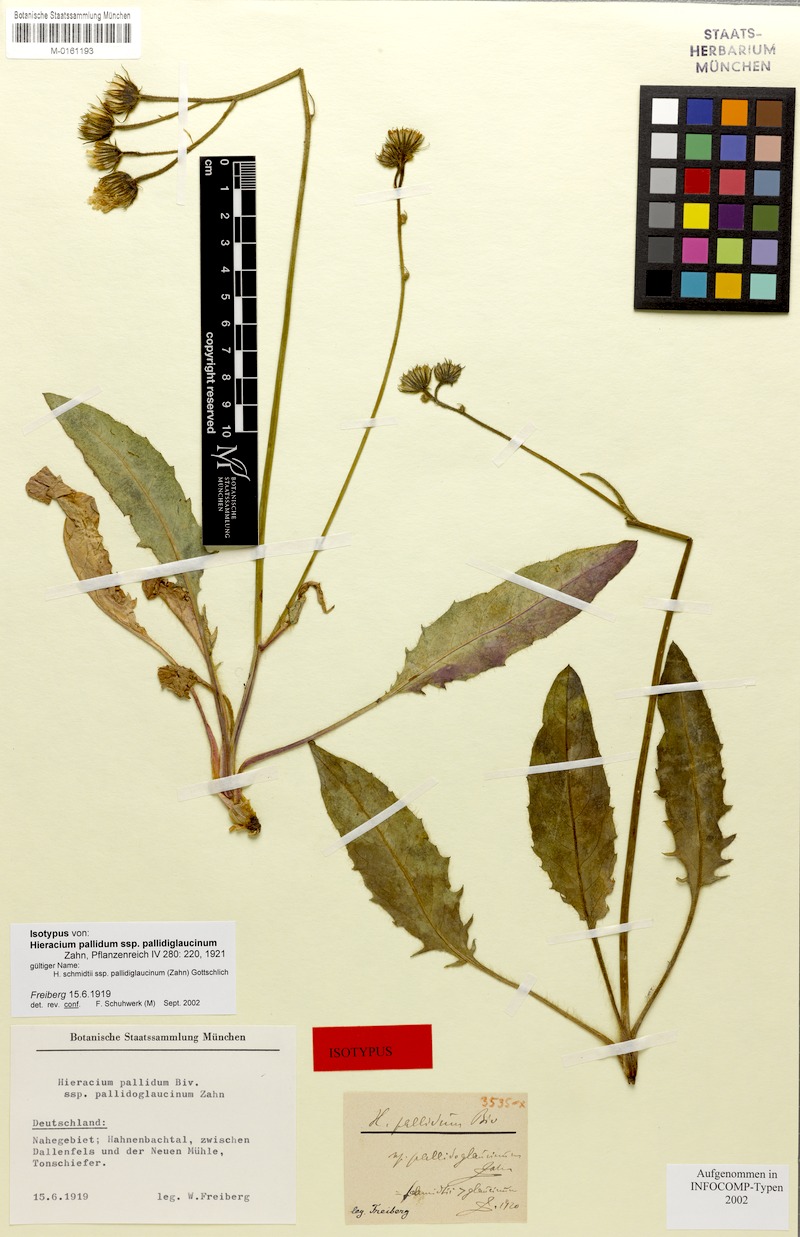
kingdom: Plantae
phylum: Tracheophyta
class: Magnoliopsida
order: Asterales
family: Asteraceae
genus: Hieracium
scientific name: Hieracium schmidtii
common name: Schmidt's hawkweed
